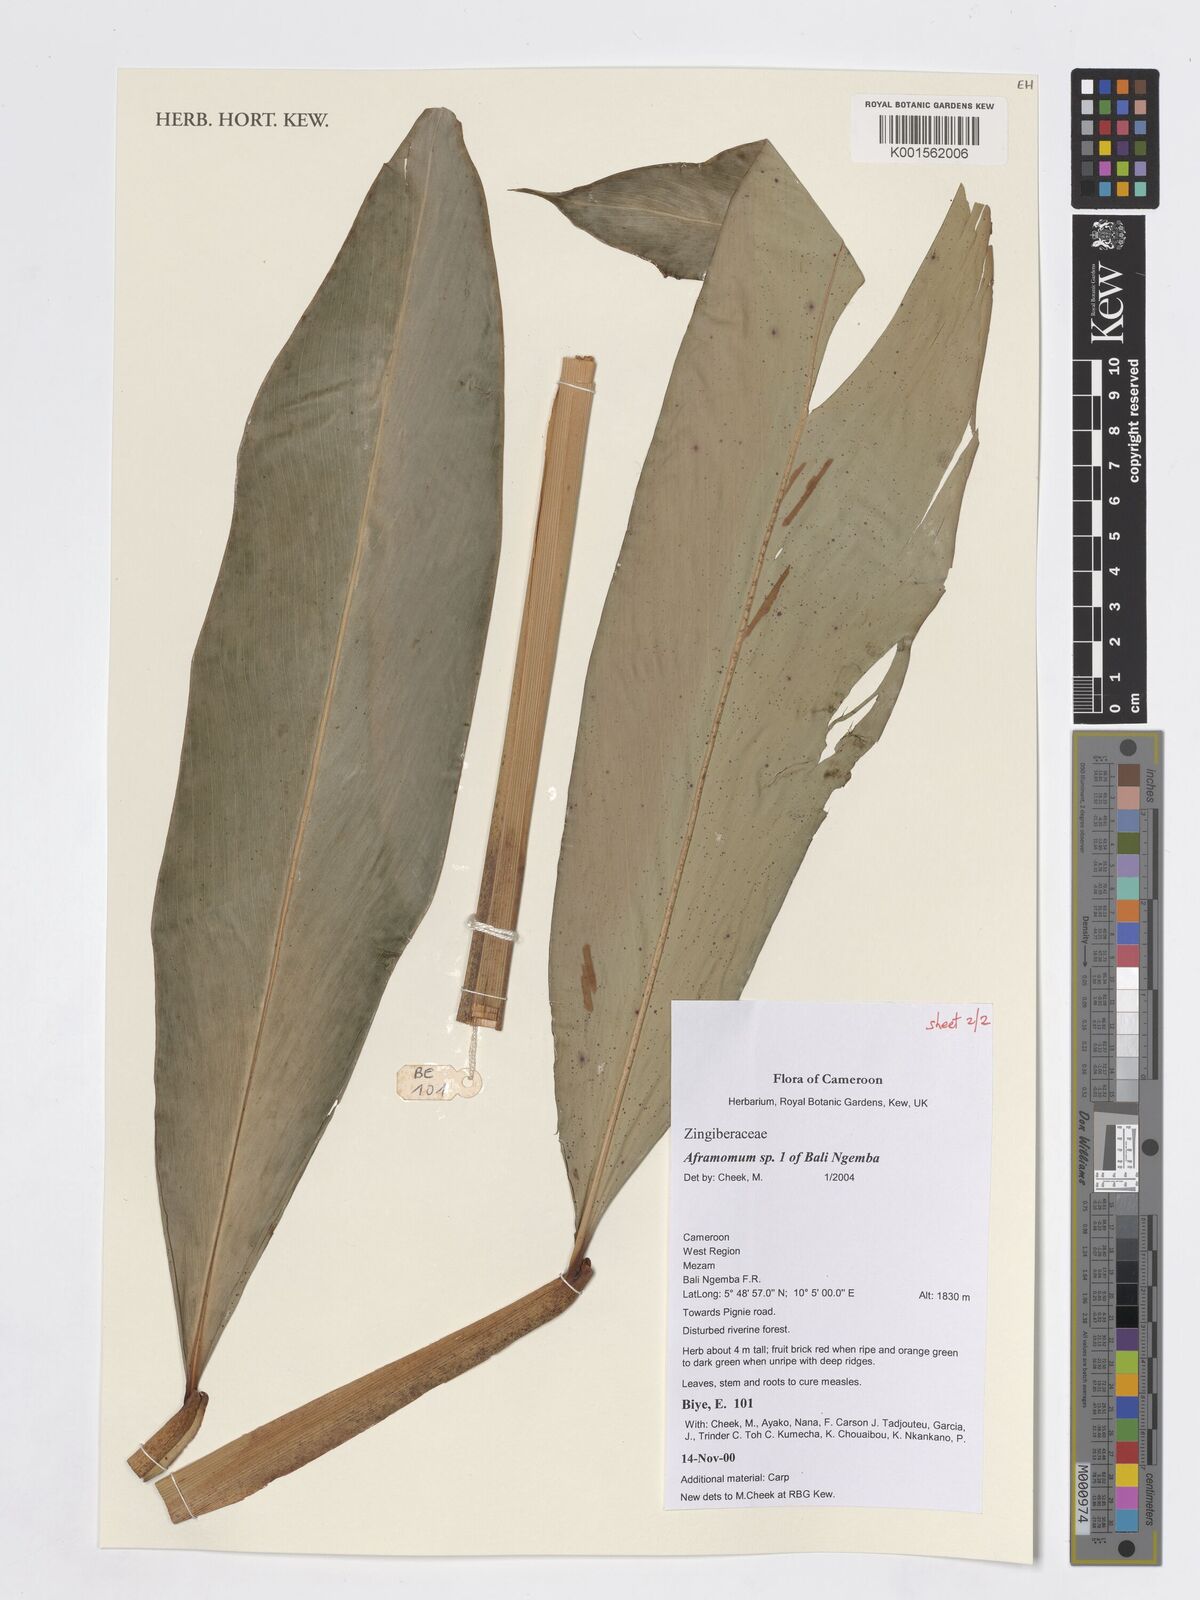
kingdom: Plantae
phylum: Tracheophyta
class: Liliopsida
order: Zingiberales
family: Zingiberaceae
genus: Aframomum
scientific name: Aframomum
